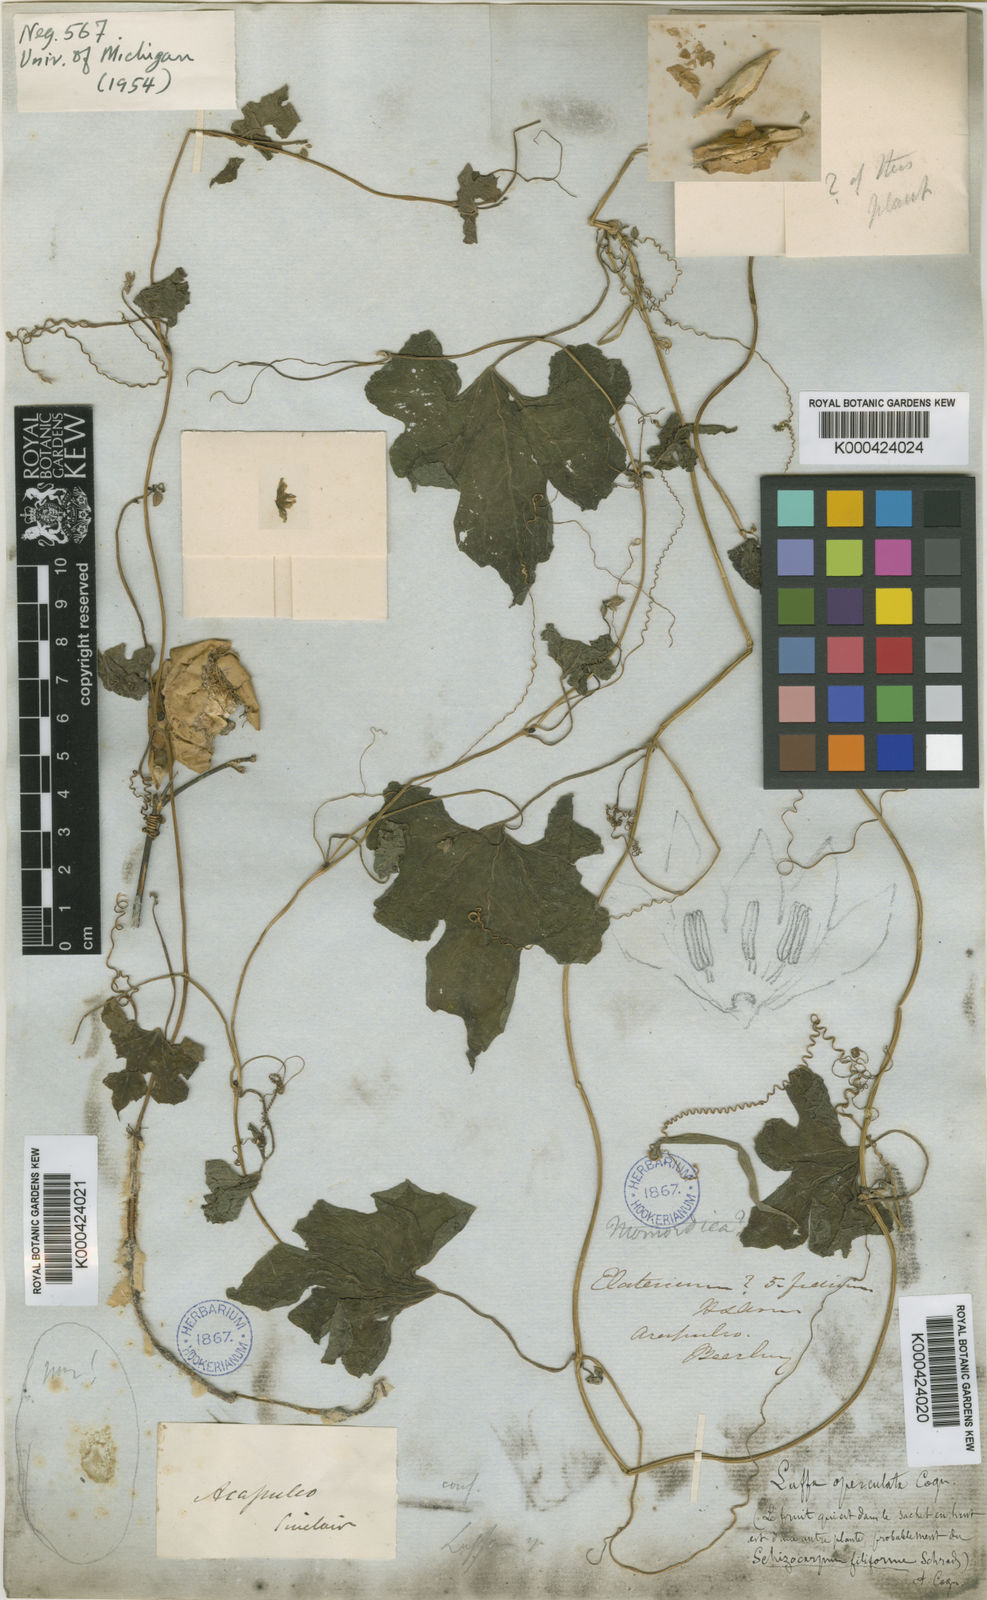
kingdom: Plantae
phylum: Tracheophyta
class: Magnoliopsida
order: Cucurbitales
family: Cucurbitaceae
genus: Luffa
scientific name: Luffa
